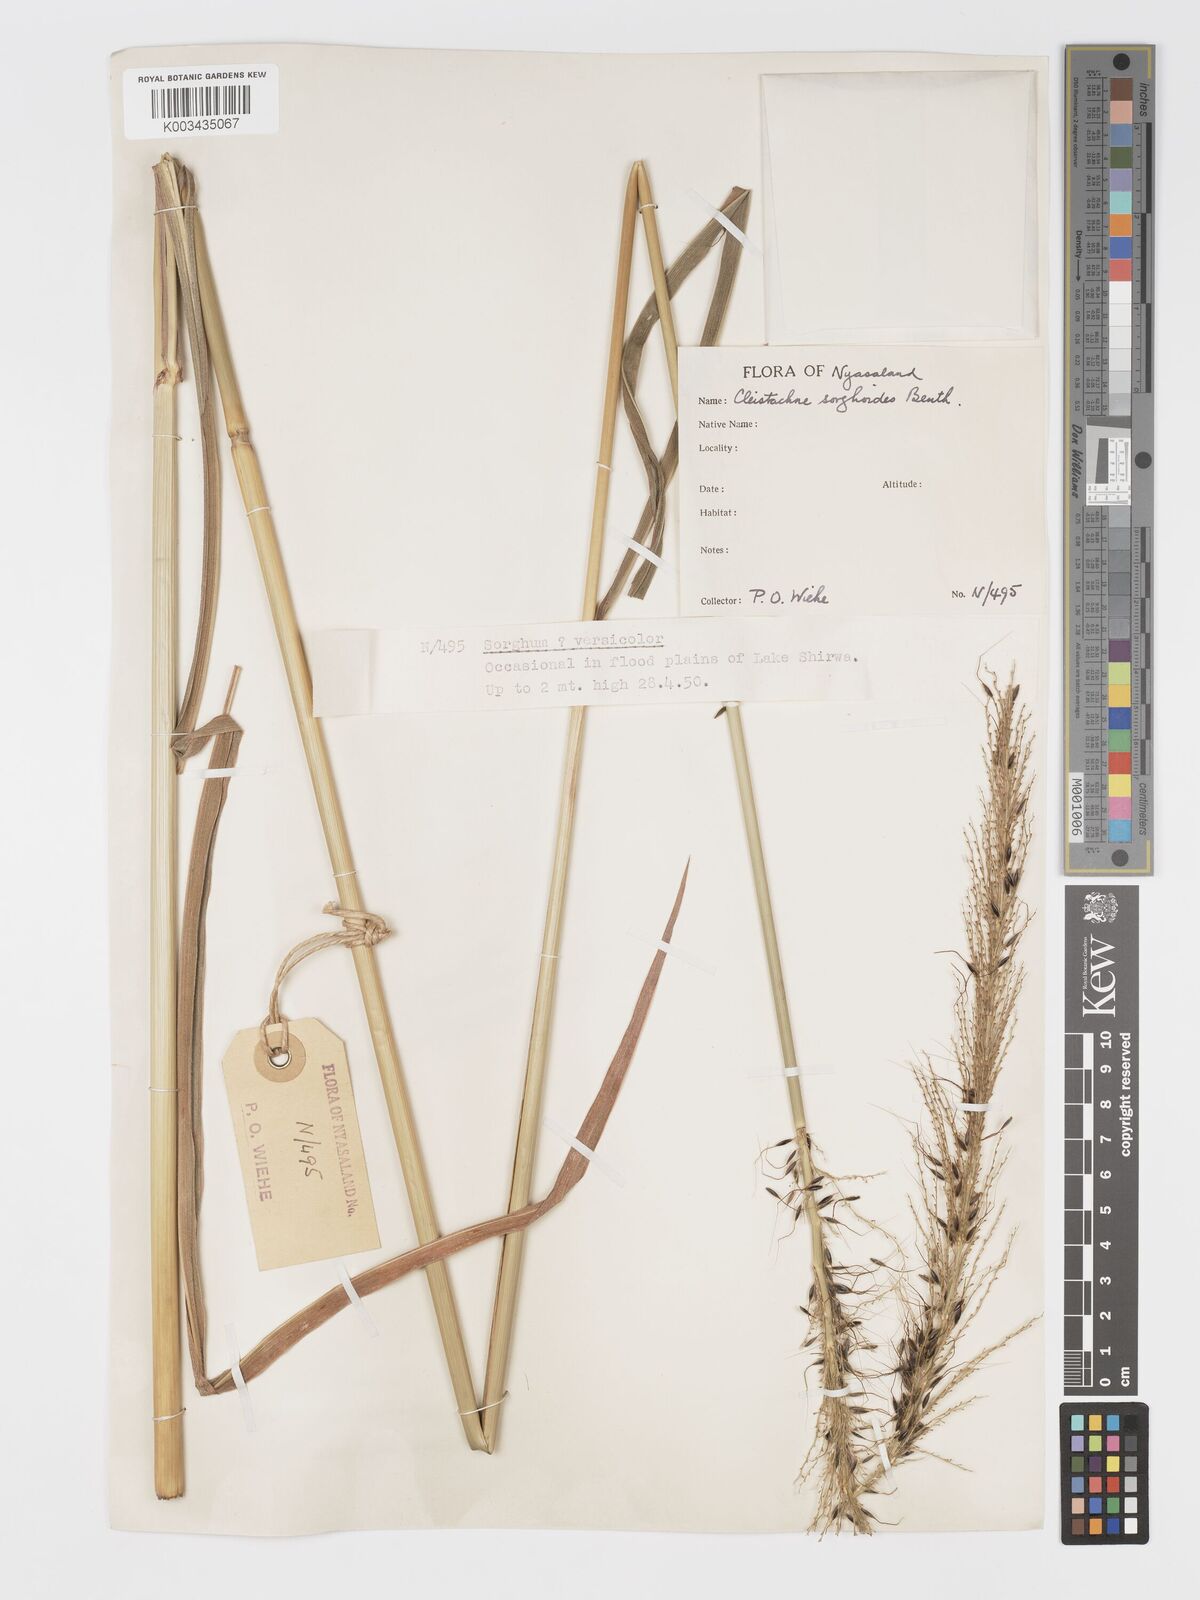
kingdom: Plantae
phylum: Tracheophyta
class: Liliopsida
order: Poales
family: Poaceae
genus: Cleistachne
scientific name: Cleistachne sorghoides
